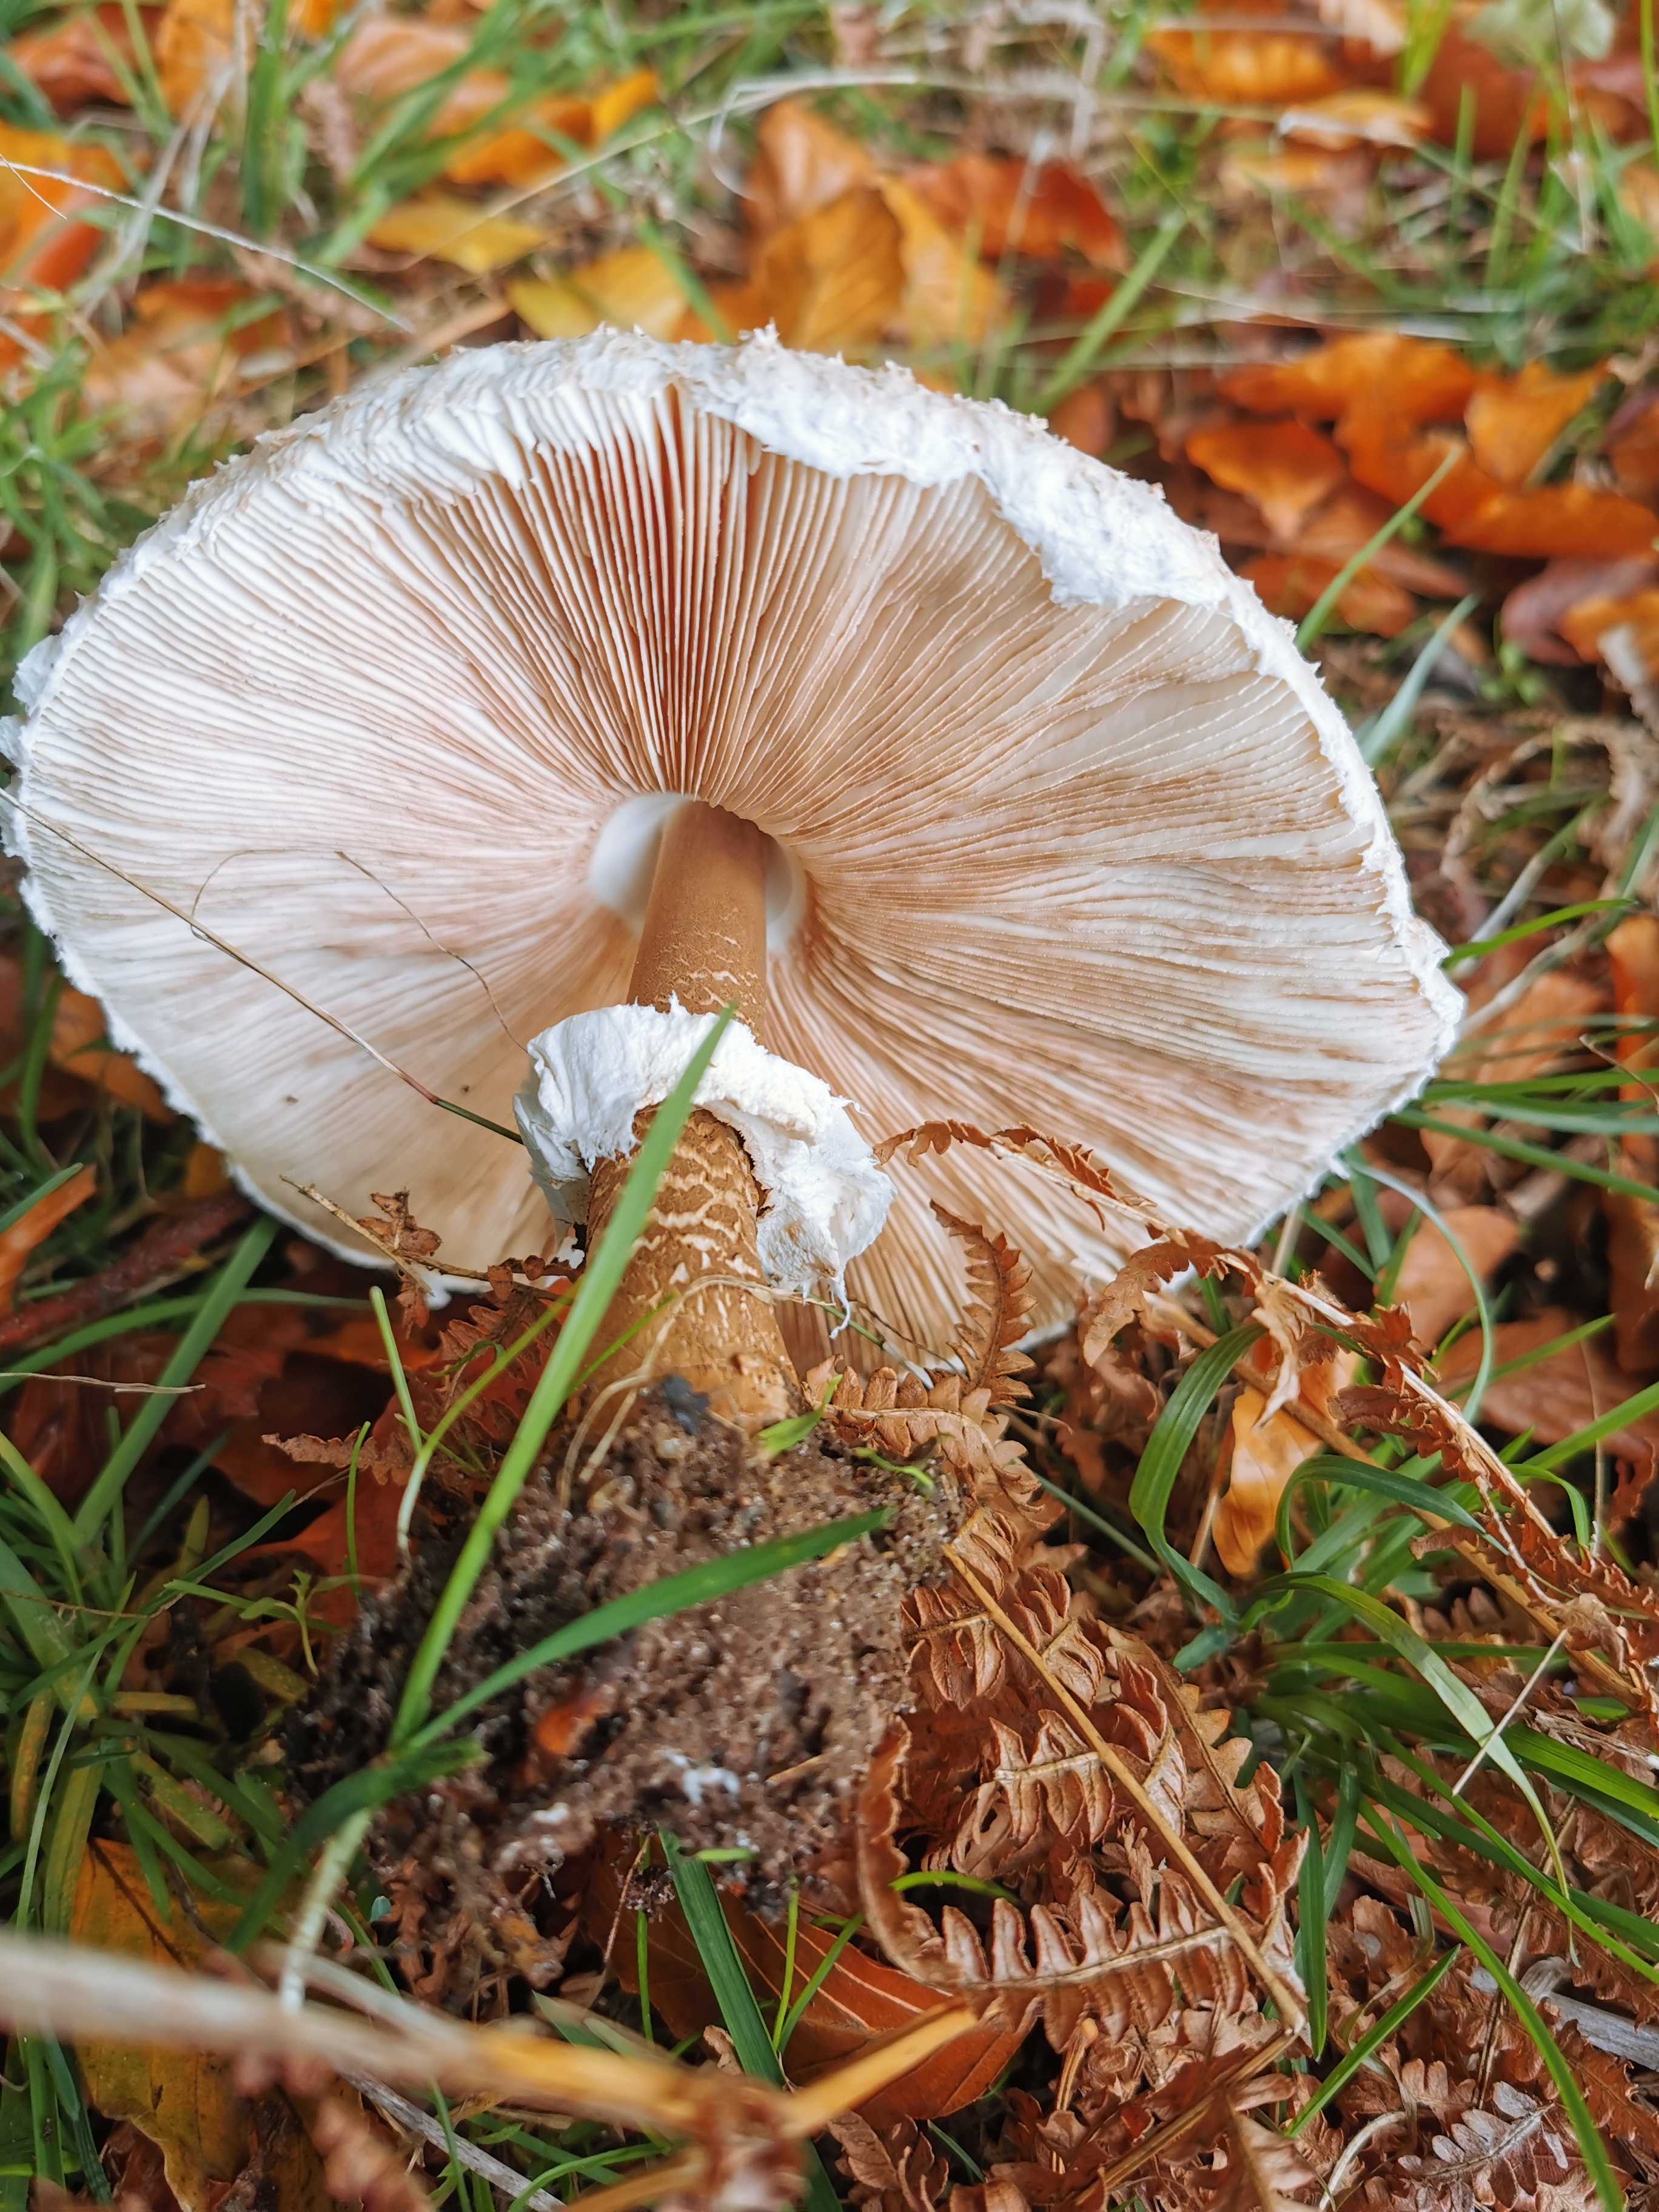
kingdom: Fungi
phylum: Basidiomycota
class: Agaricomycetes
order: Agaricales
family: Agaricaceae
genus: Macrolepiota
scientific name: Macrolepiota procera
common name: stor kæmpeparasolhat
